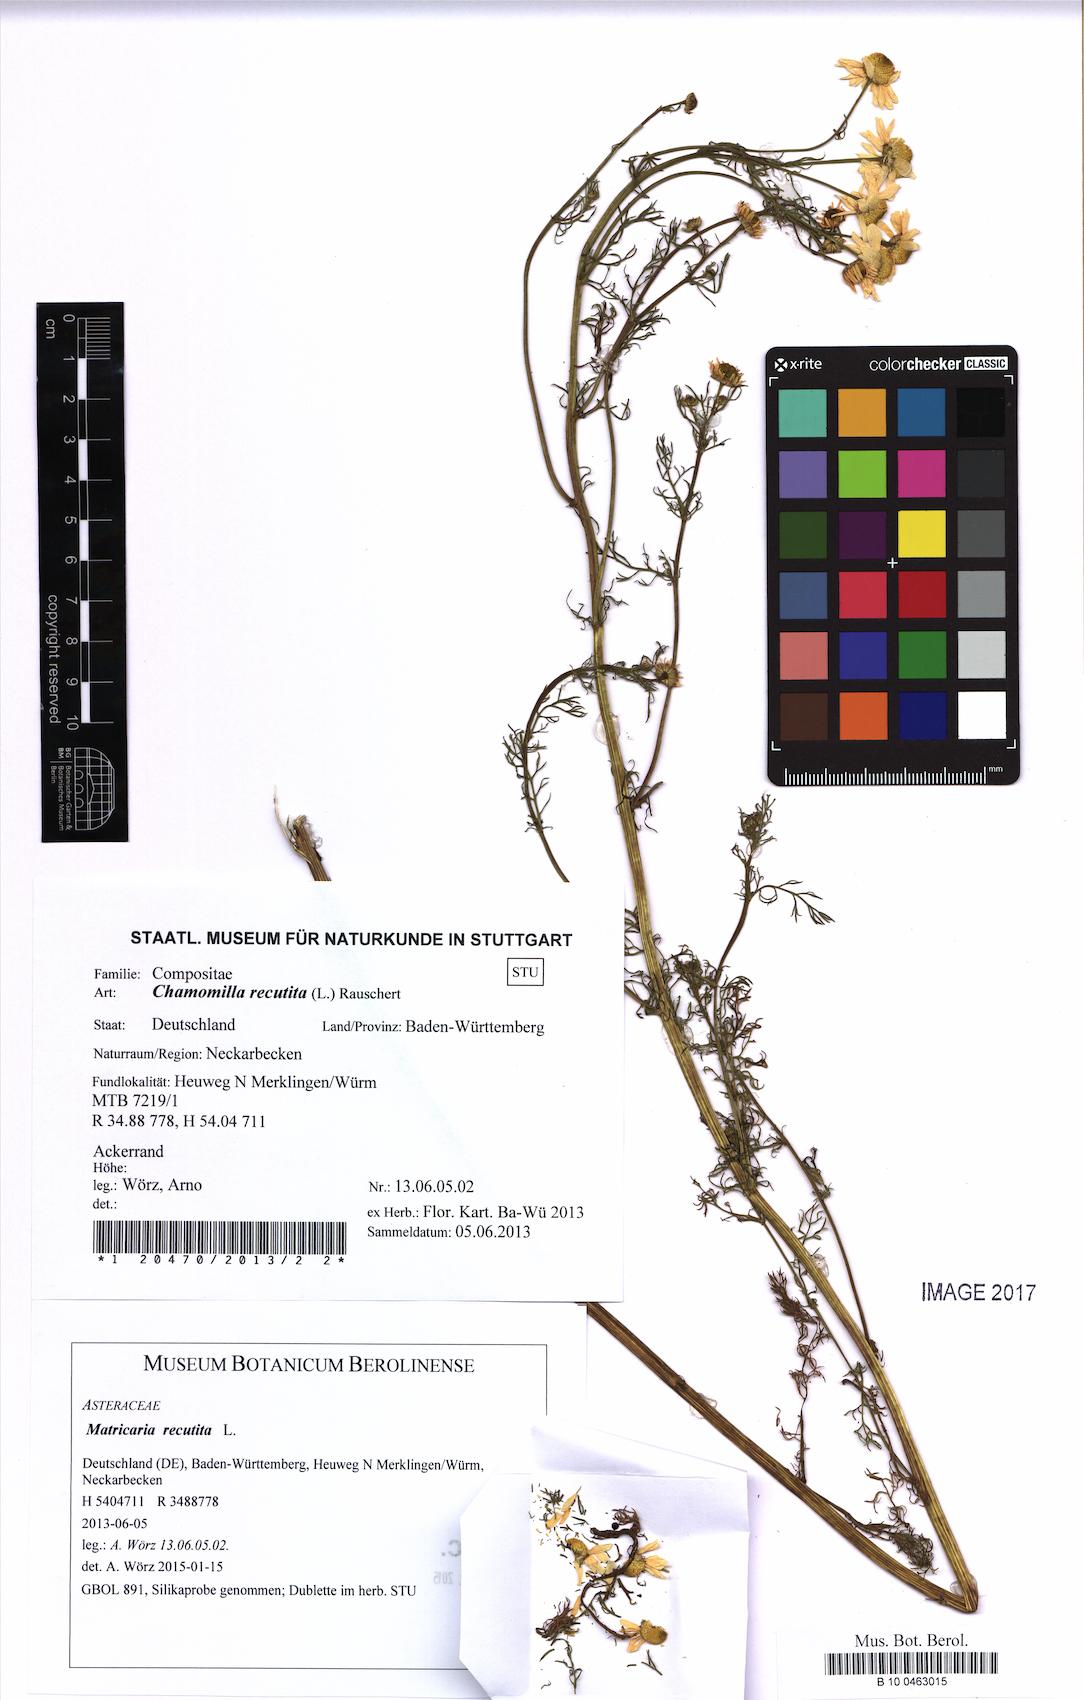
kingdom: Plantae
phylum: Tracheophyta
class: Magnoliopsida
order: Asterales
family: Asteraceae
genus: Matricaria
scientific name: Matricaria chamomilla
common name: Scented mayweed
